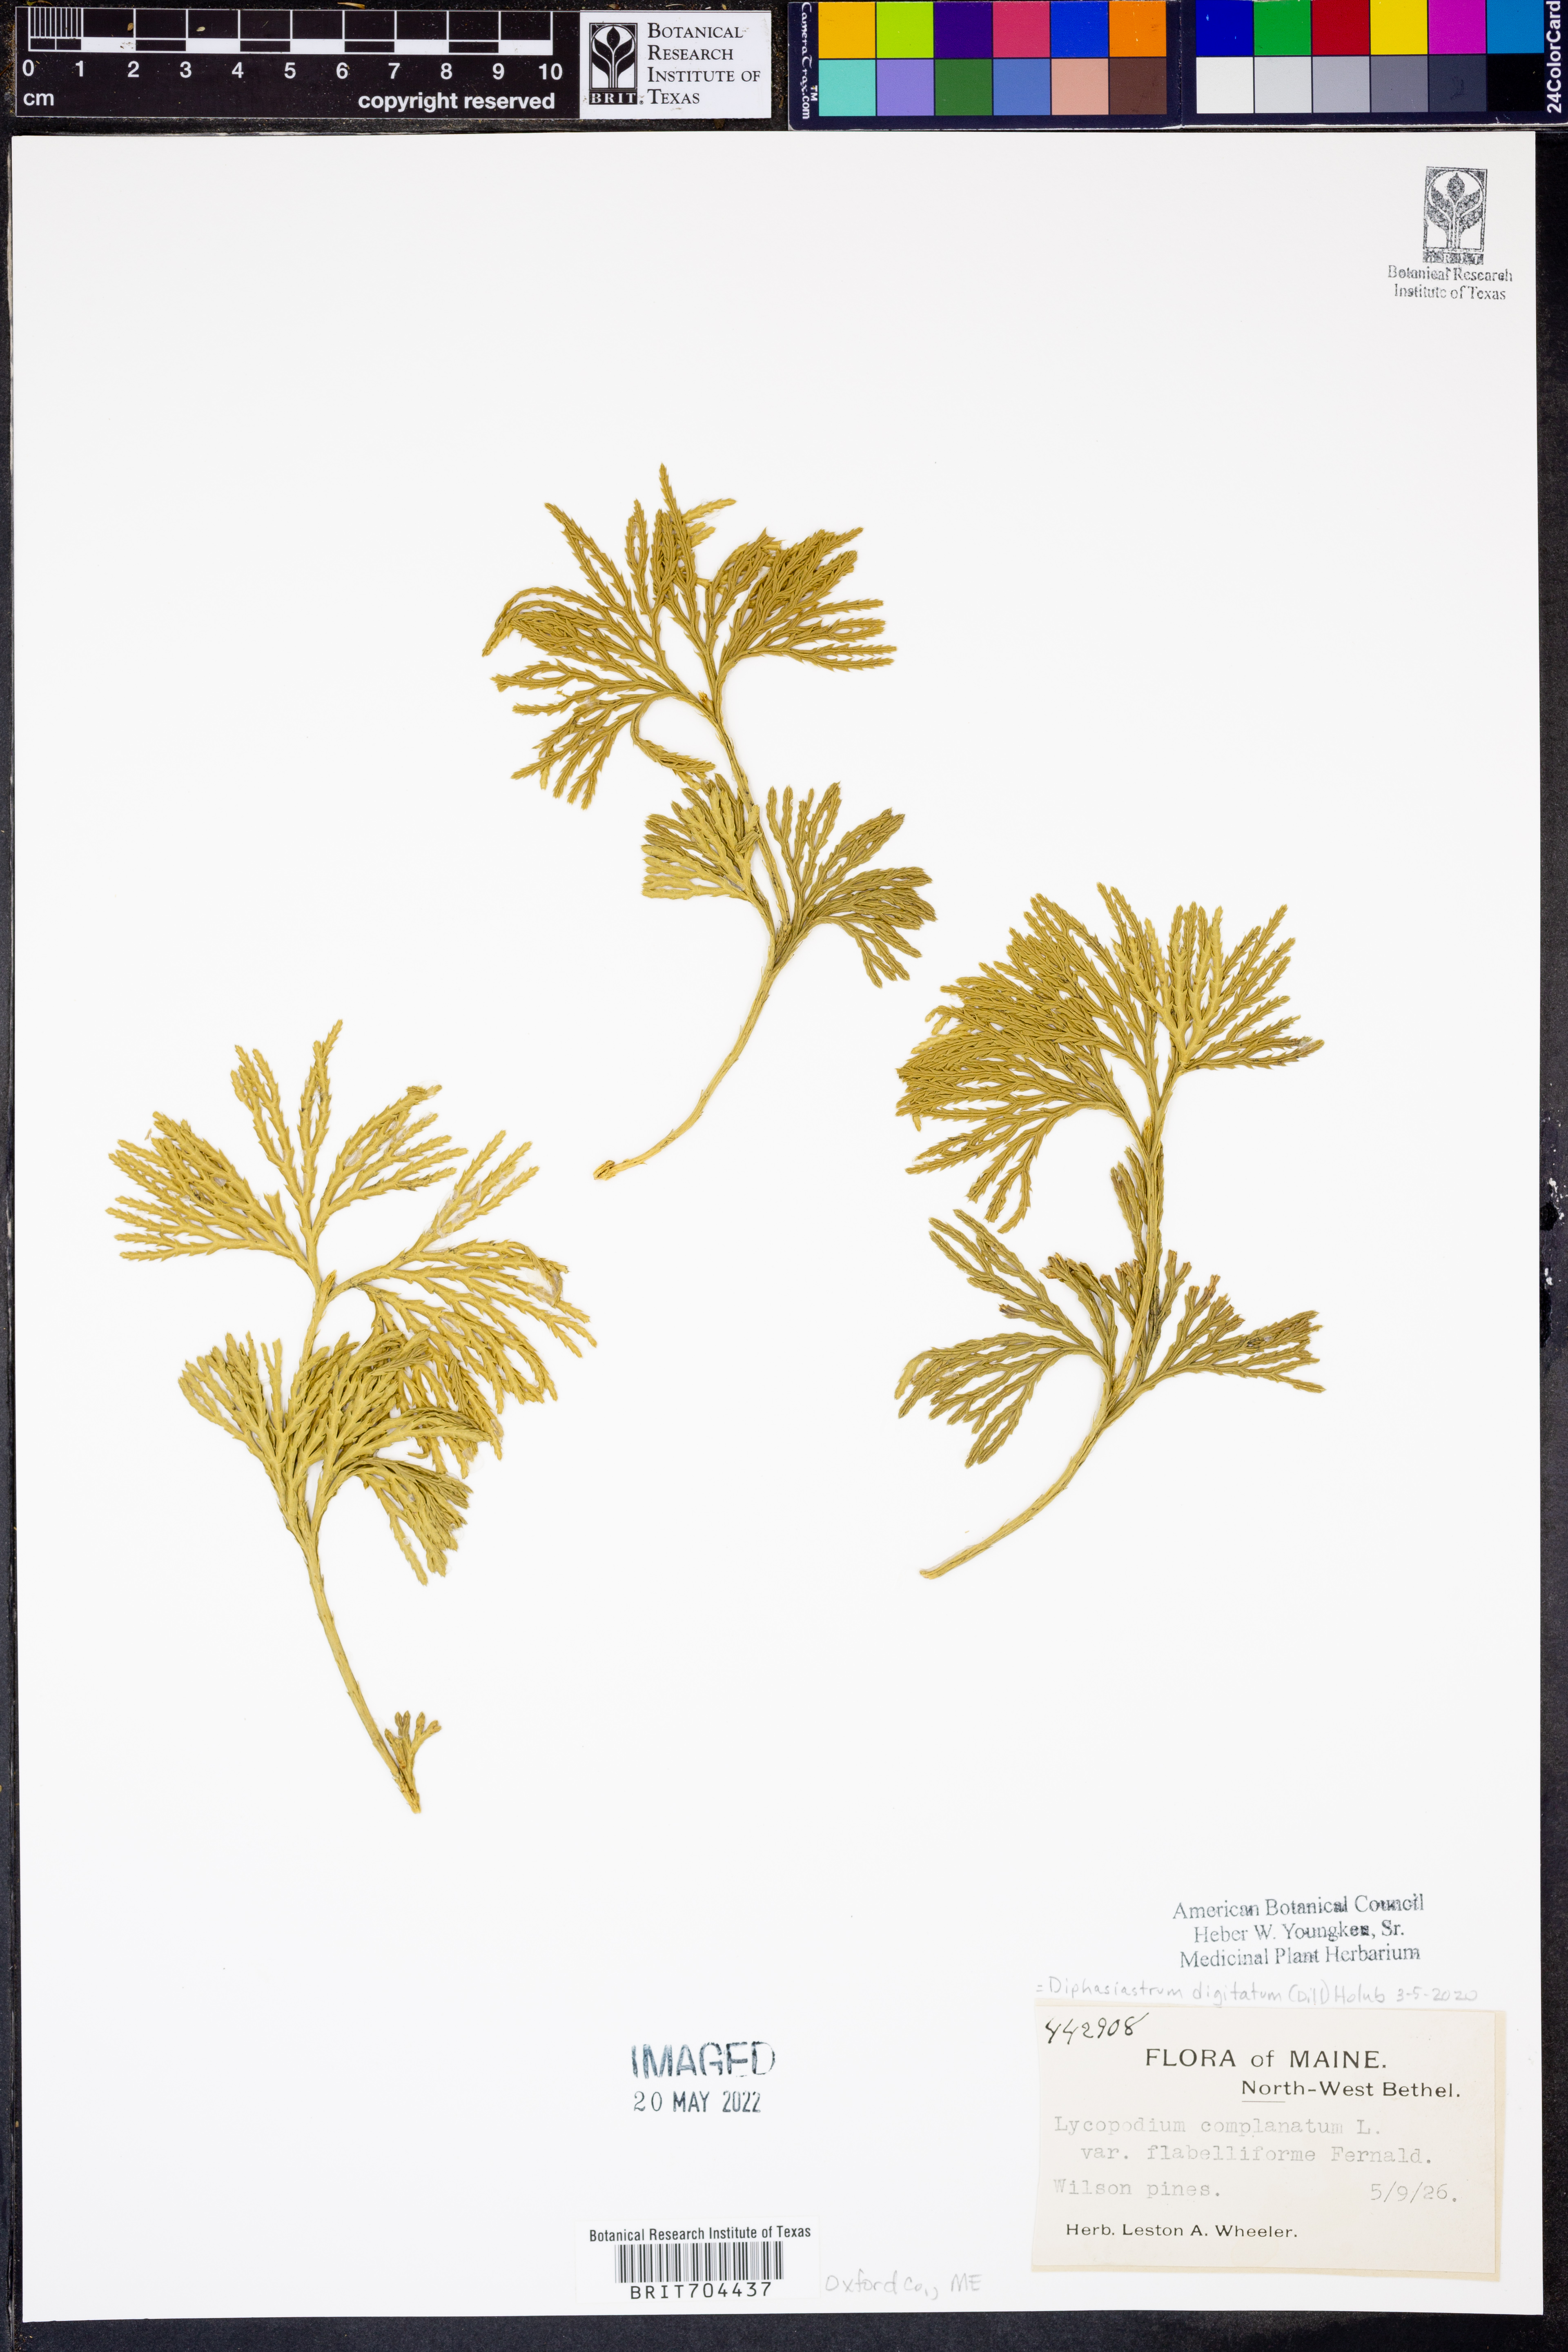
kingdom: Plantae
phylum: Tracheophyta
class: Lycopodiopsida
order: Lycopodiales
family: Lycopodiaceae
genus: Diphasiastrum
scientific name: Diphasiastrum digitatum
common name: Southern running-pine
